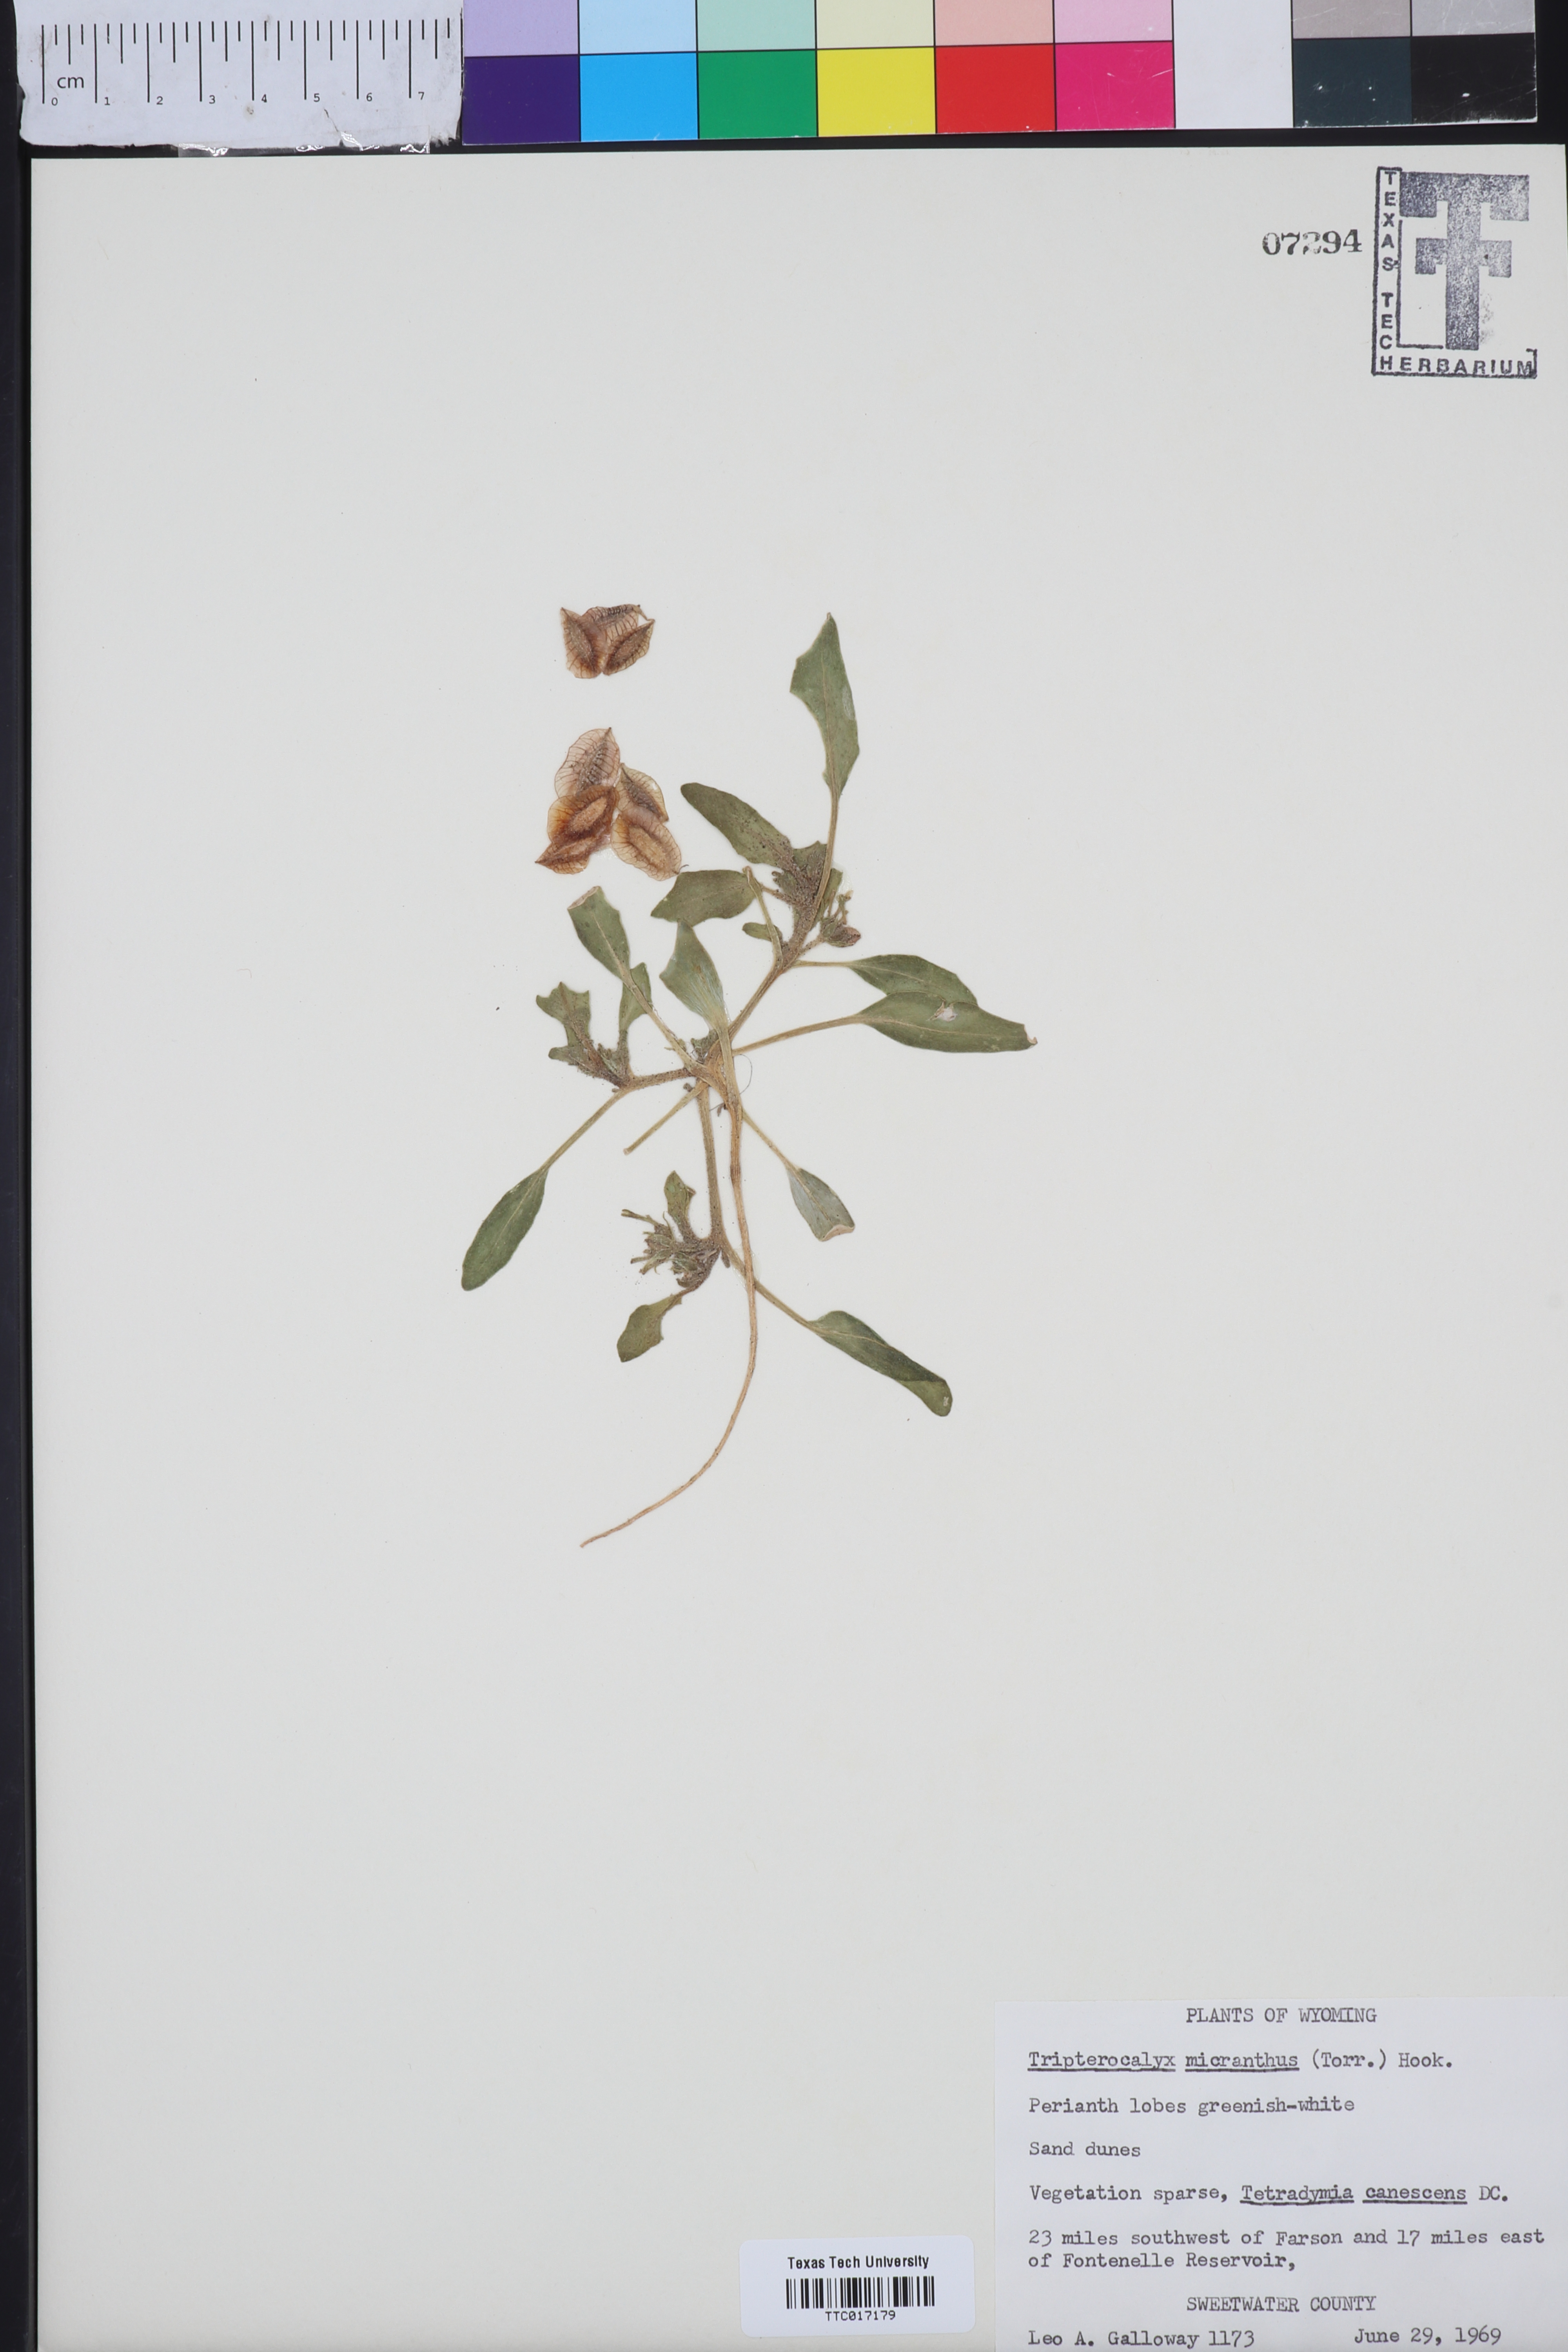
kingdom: Plantae
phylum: Tracheophyta
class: Magnoliopsida
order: Caryophyllales
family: Nyctaginaceae
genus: Tripterocalyx
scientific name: Tripterocalyx micranthus
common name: Small-flowered sand-verbena
